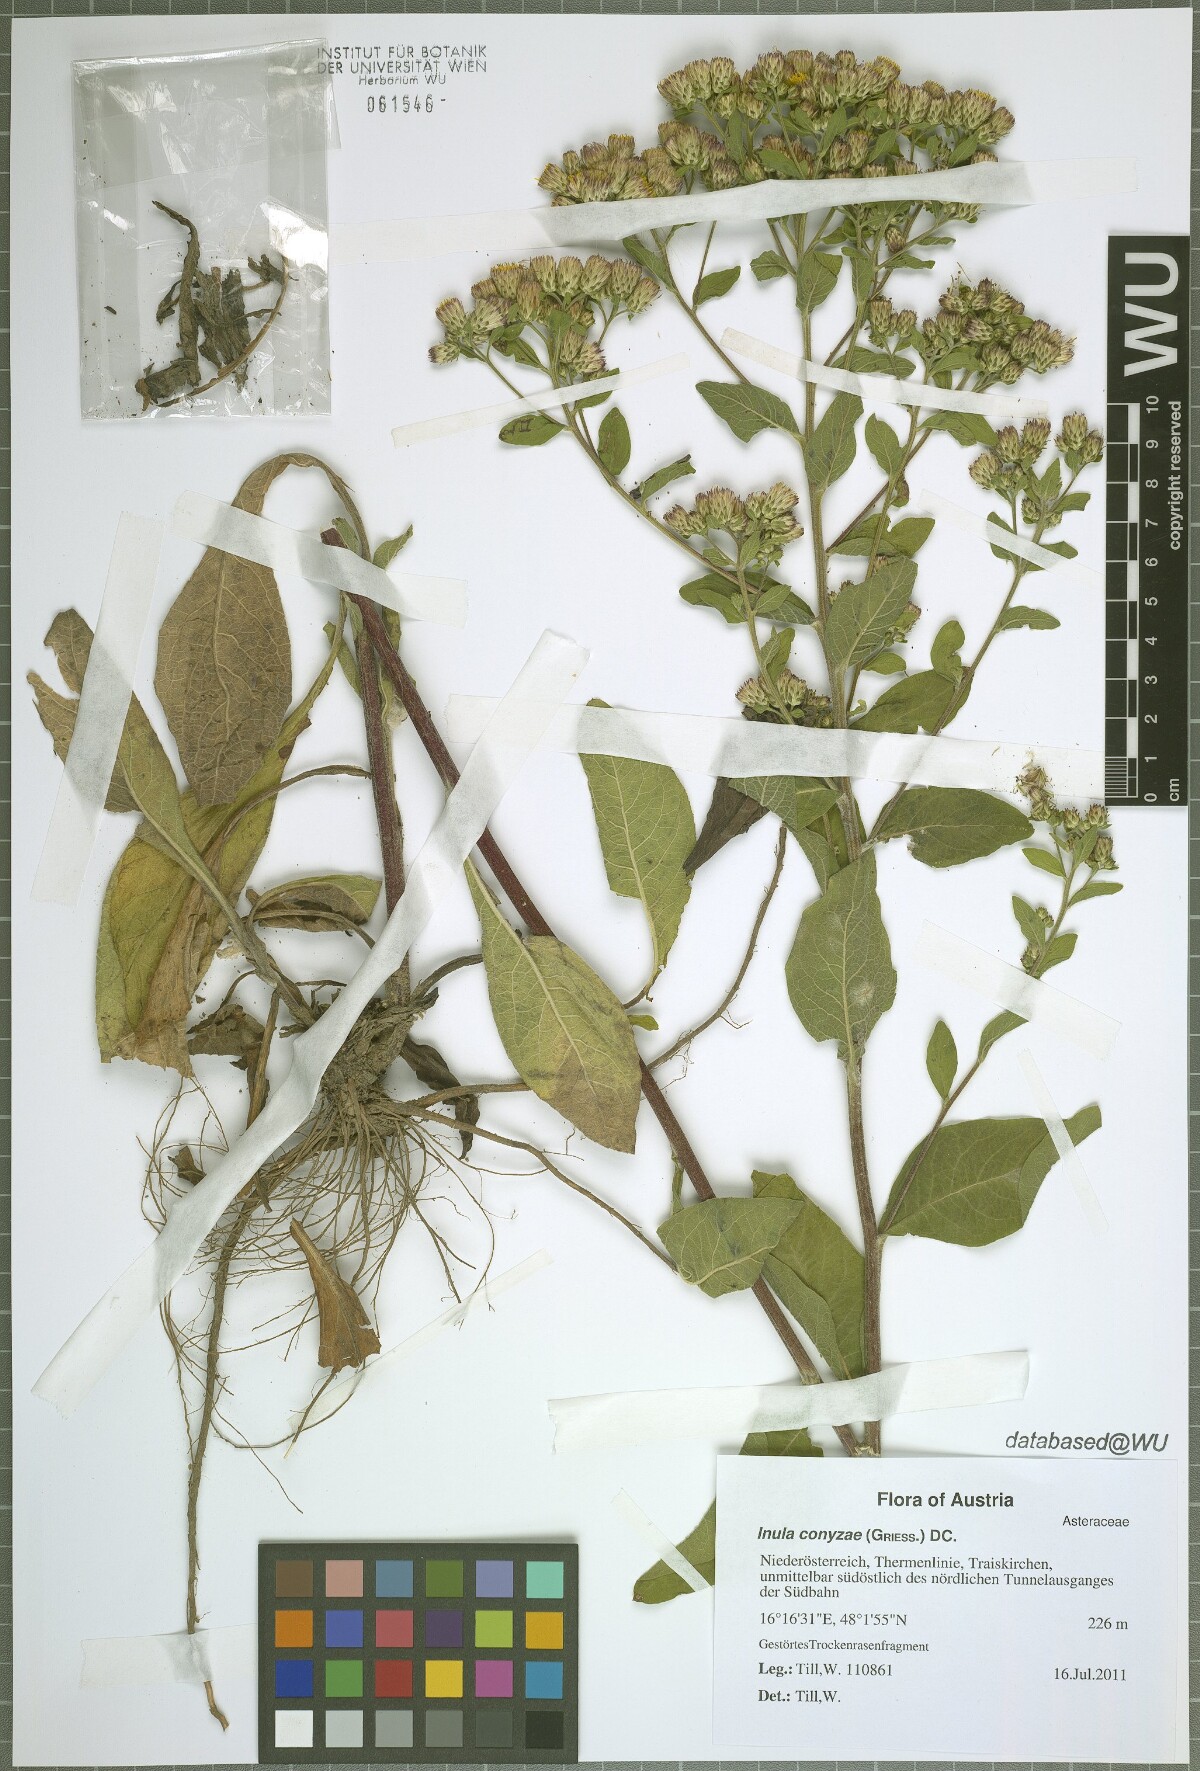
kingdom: Plantae
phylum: Tracheophyta
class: Magnoliopsida
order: Asterales
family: Asteraceae
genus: Pentanema
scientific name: Pentanema squarrosum
